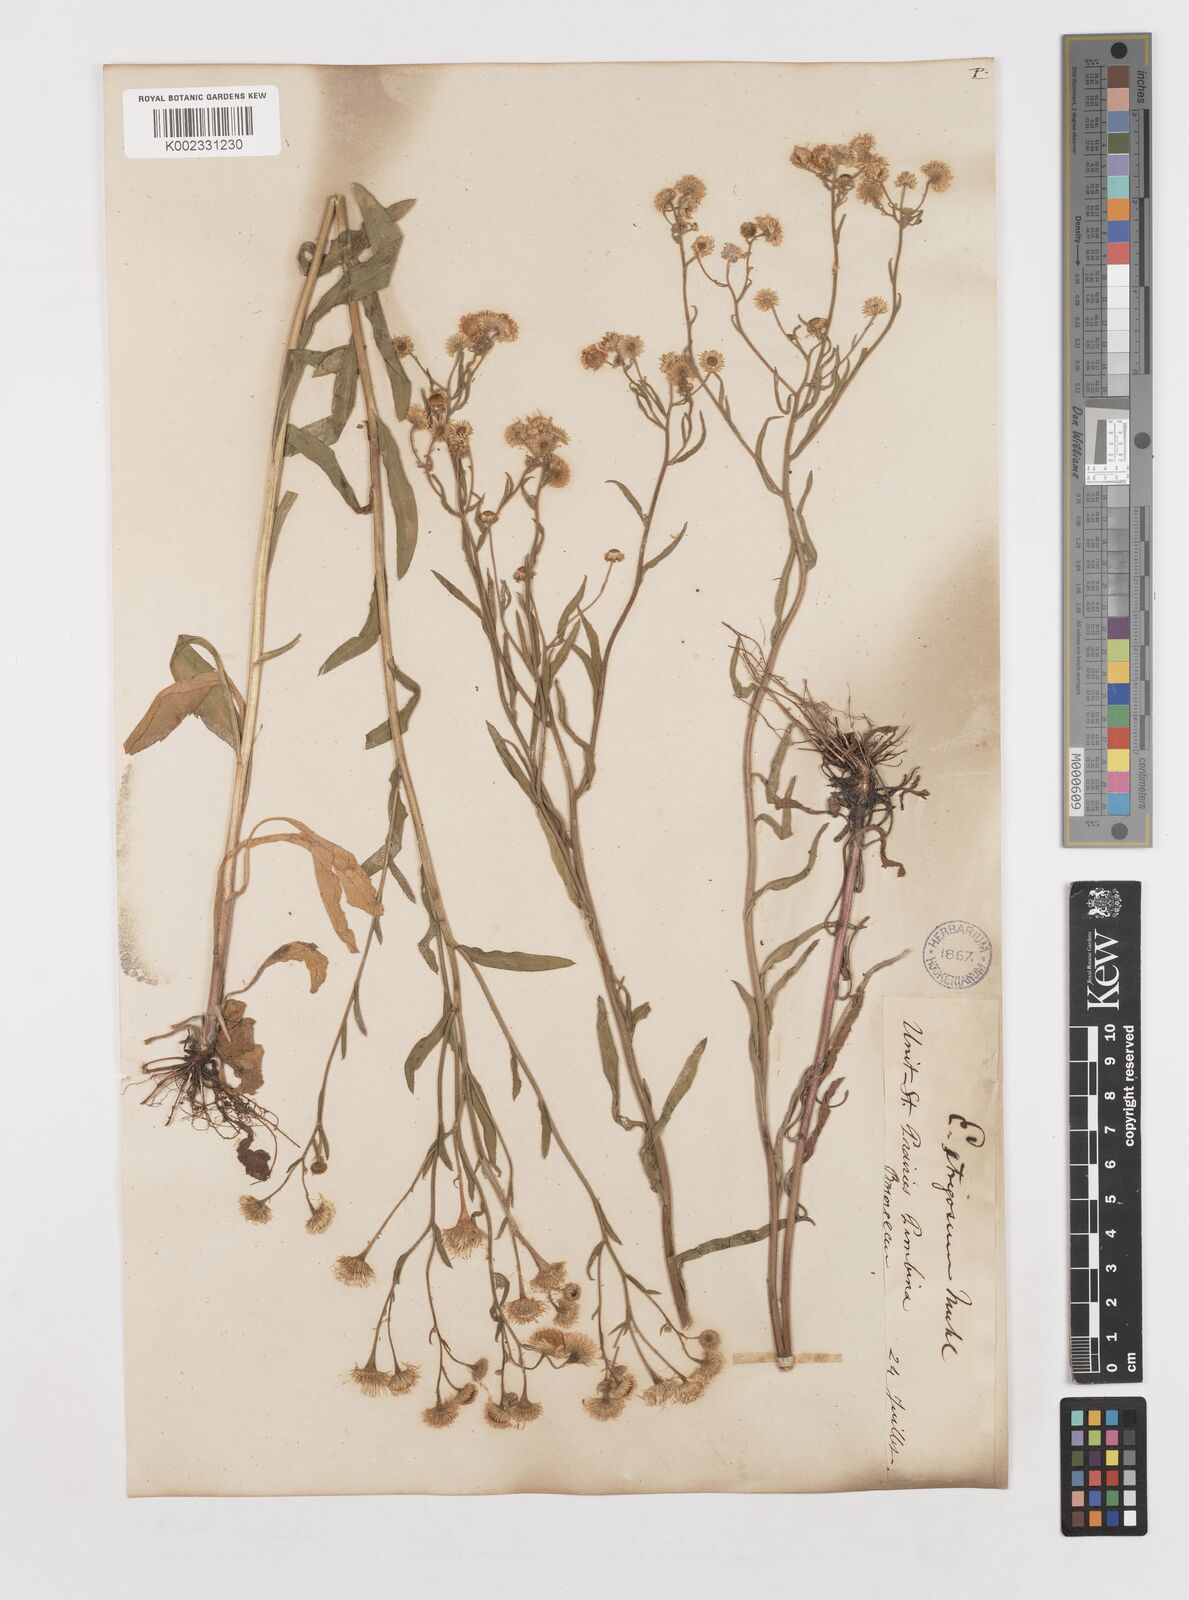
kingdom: Plantae
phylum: Tracheophyta
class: Magnoliopsida
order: Asterales
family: Asteraceae
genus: Erigeron
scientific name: Erigeron strigosus
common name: Common eastern fleabane
